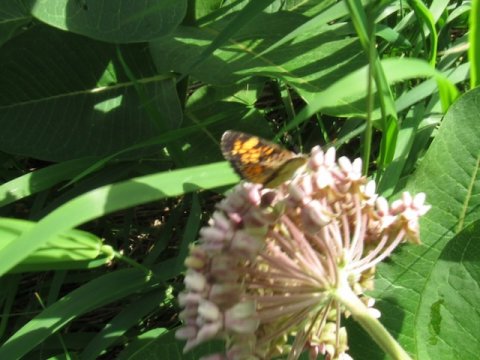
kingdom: Animalia
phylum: Arthropoda
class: Insecta
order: Lepidoptera
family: Nymphalidae
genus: Phyciodes
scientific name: Phyciodes tharos
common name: Pearl Crescent
